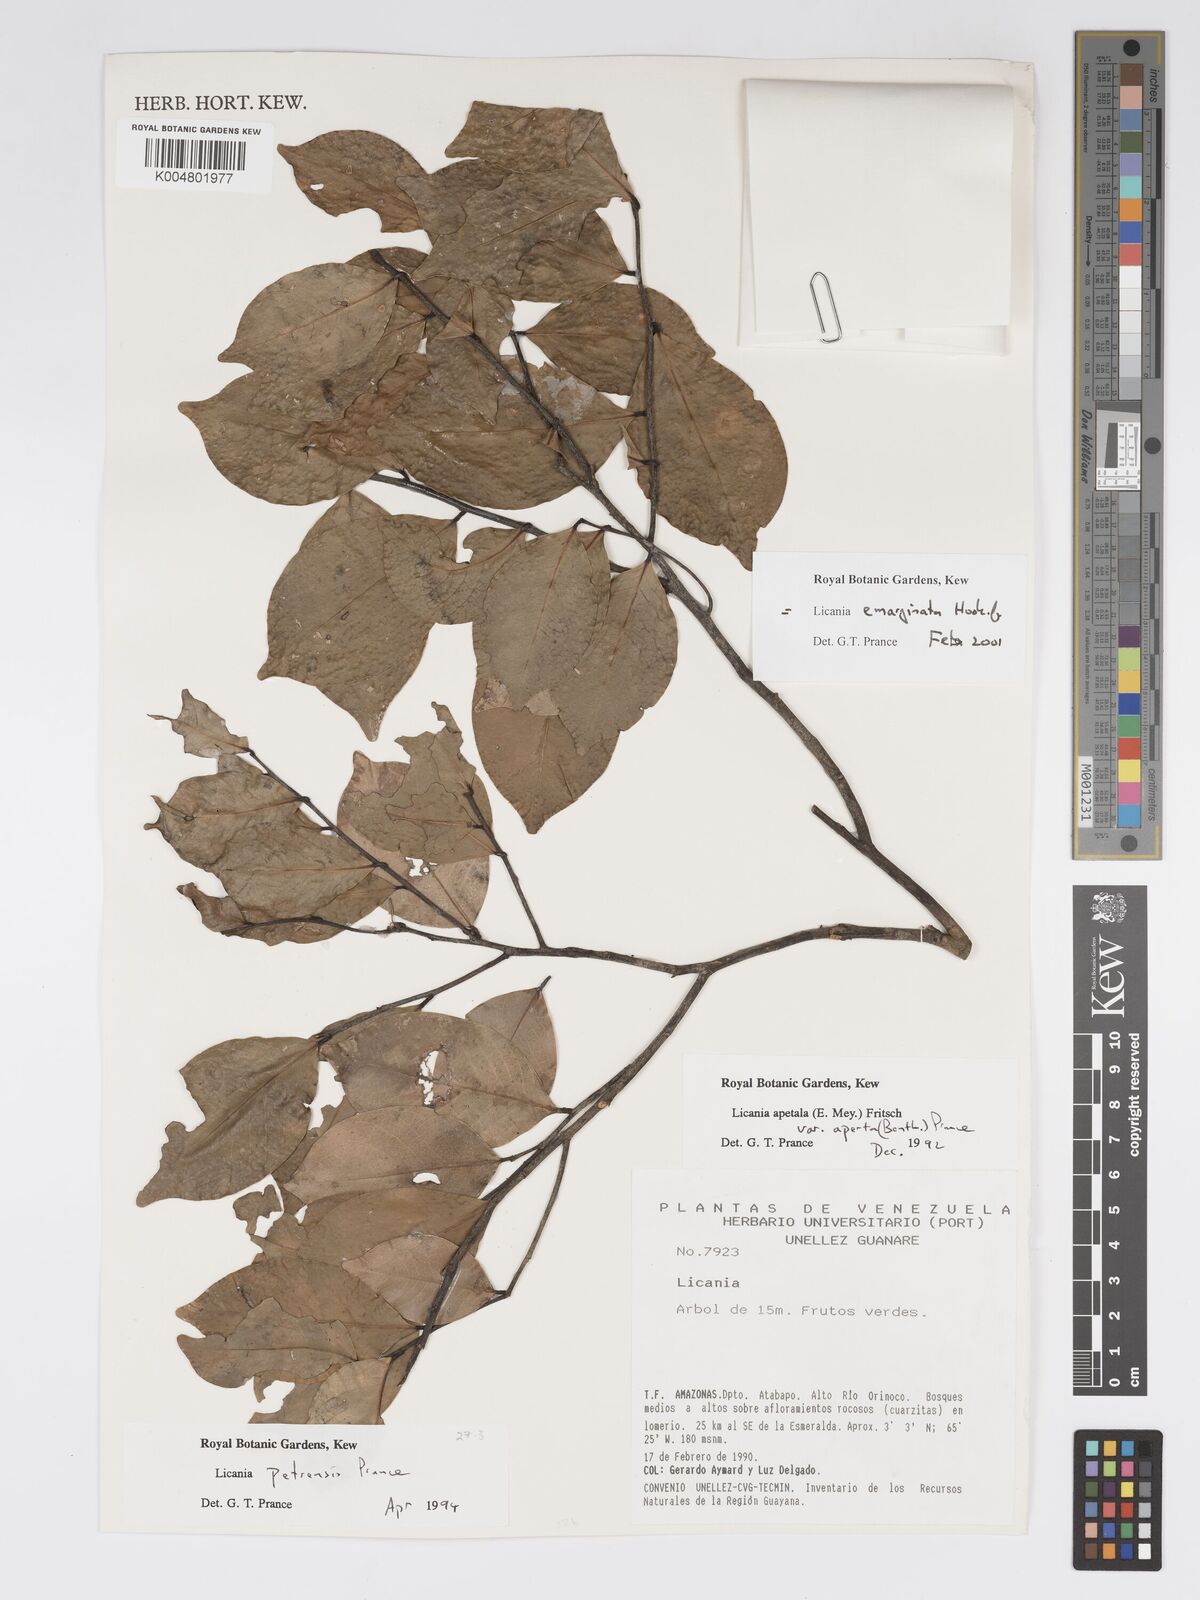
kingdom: Plantae
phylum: Tracheophyta
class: Magnoliopsida
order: Malpighiales
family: Chrysobalanaceae
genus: Leptobalanus
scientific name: Leptobalanus emarginatus
